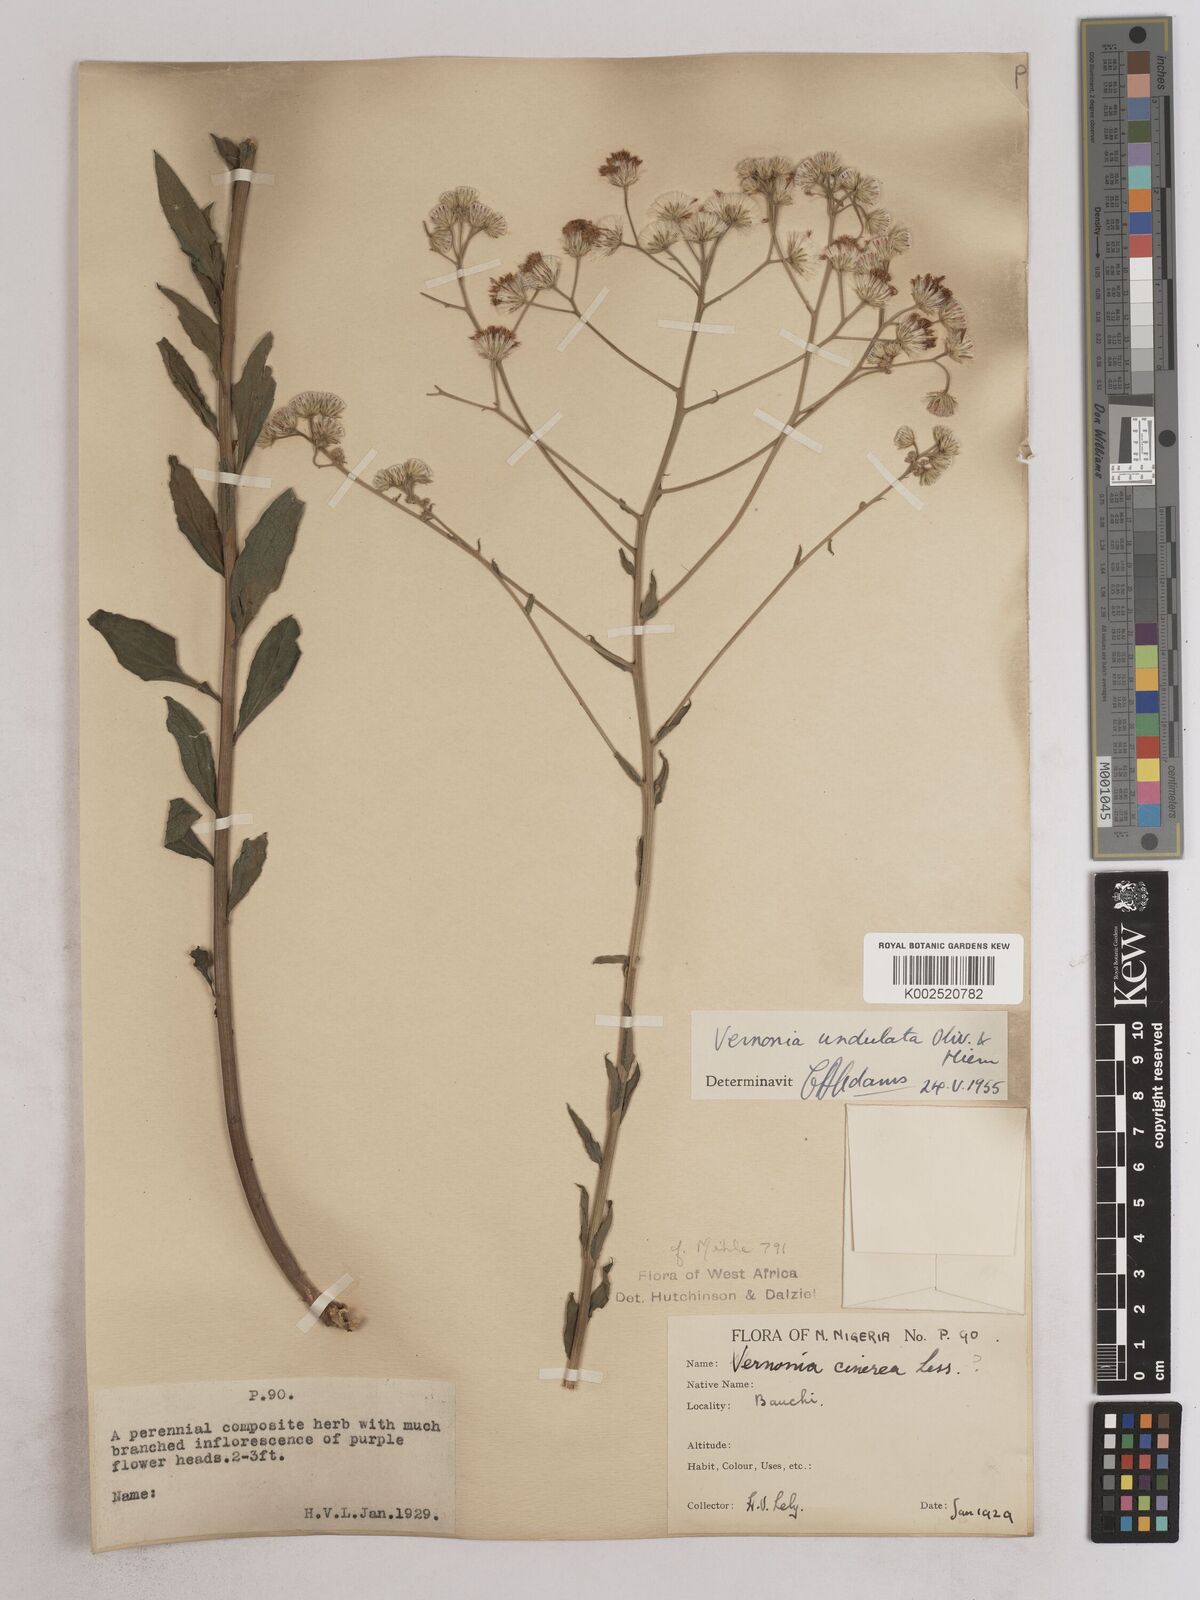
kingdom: Plantae
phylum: Tracheophyta
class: Magnoliopsida
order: Asterales
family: Asteraceae
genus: Vernonia
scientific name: Vernonia golungensis
